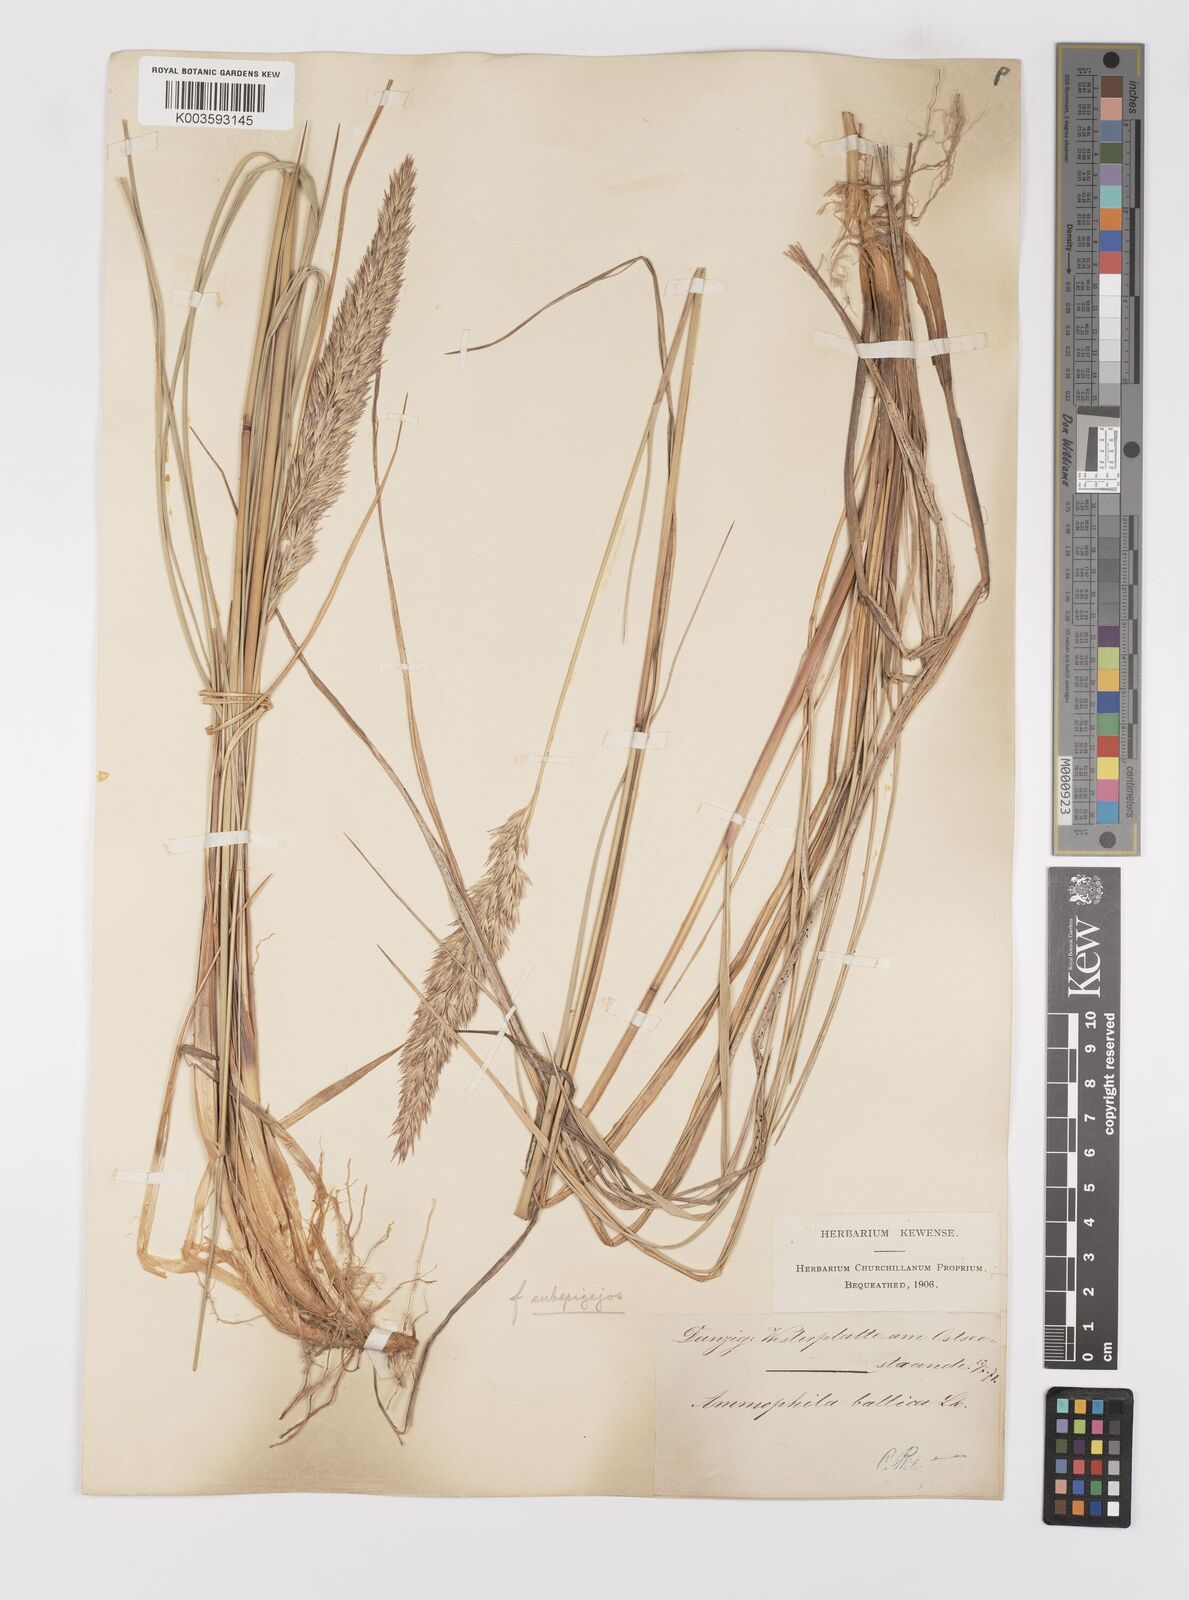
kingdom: Plantae
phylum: Tracheophyta
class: Liliopsida
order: Poales
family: Poaceae
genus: Calamagrostis
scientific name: Calamagrostis baltica
